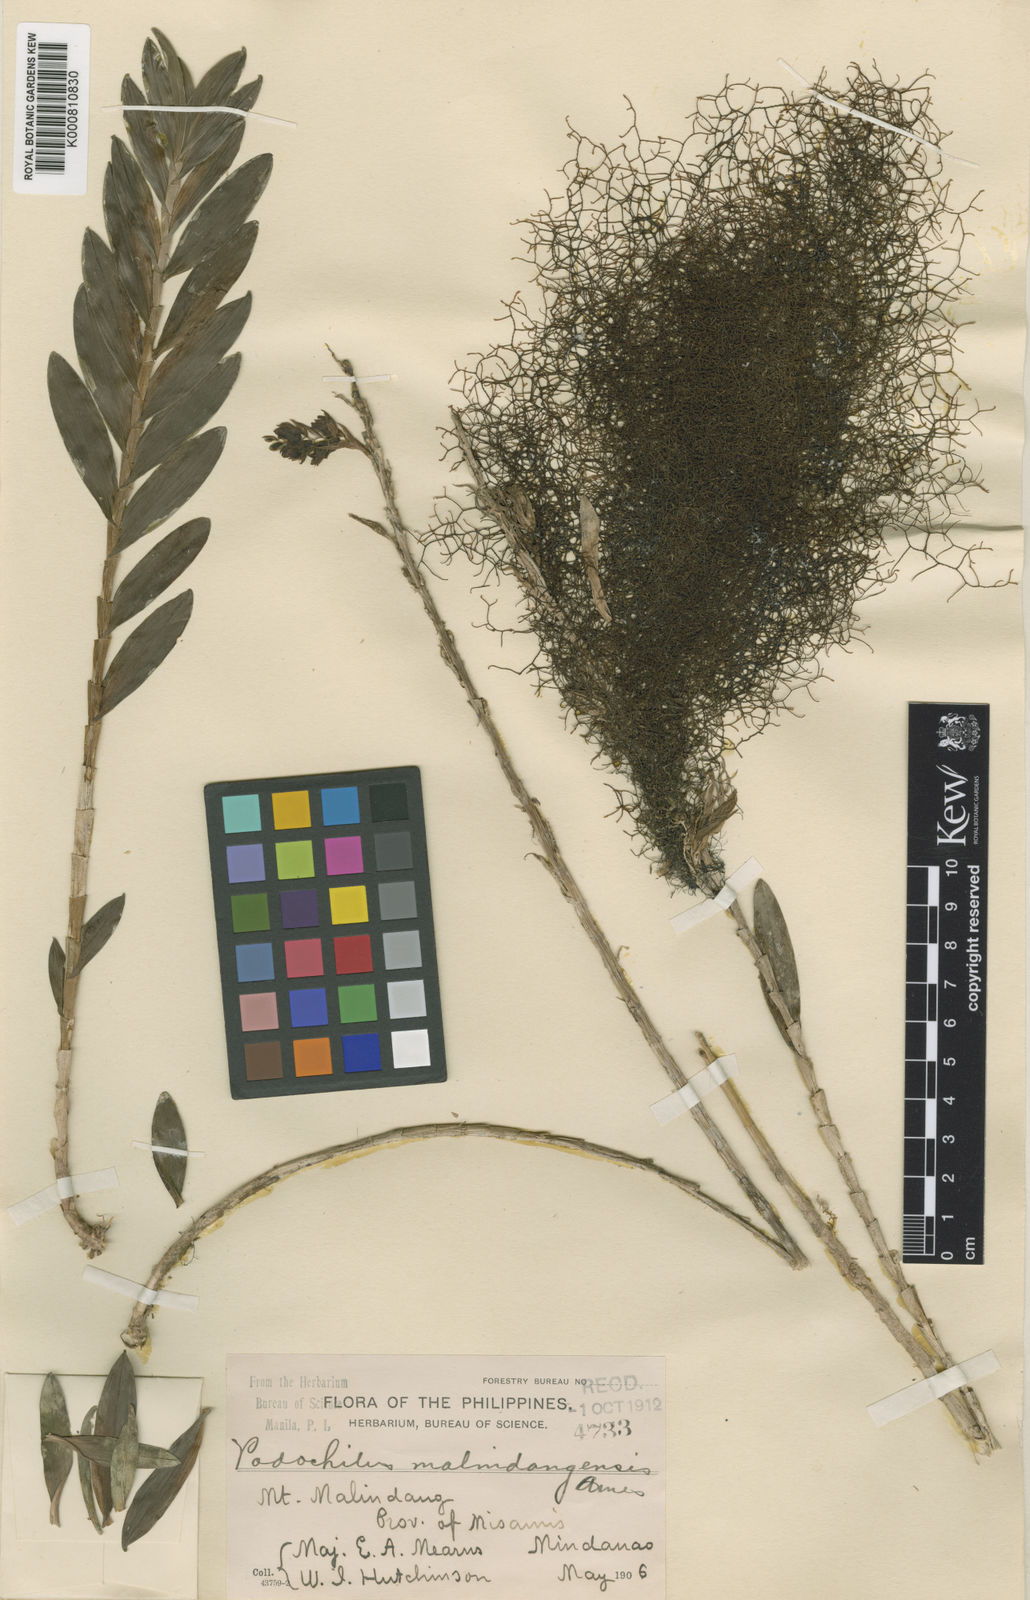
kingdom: Plantae
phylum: Tracheophyta
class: Liliopsida
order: Asparagales
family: Orchidaceae
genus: Appendicula
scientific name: Appendicula malindangensis
